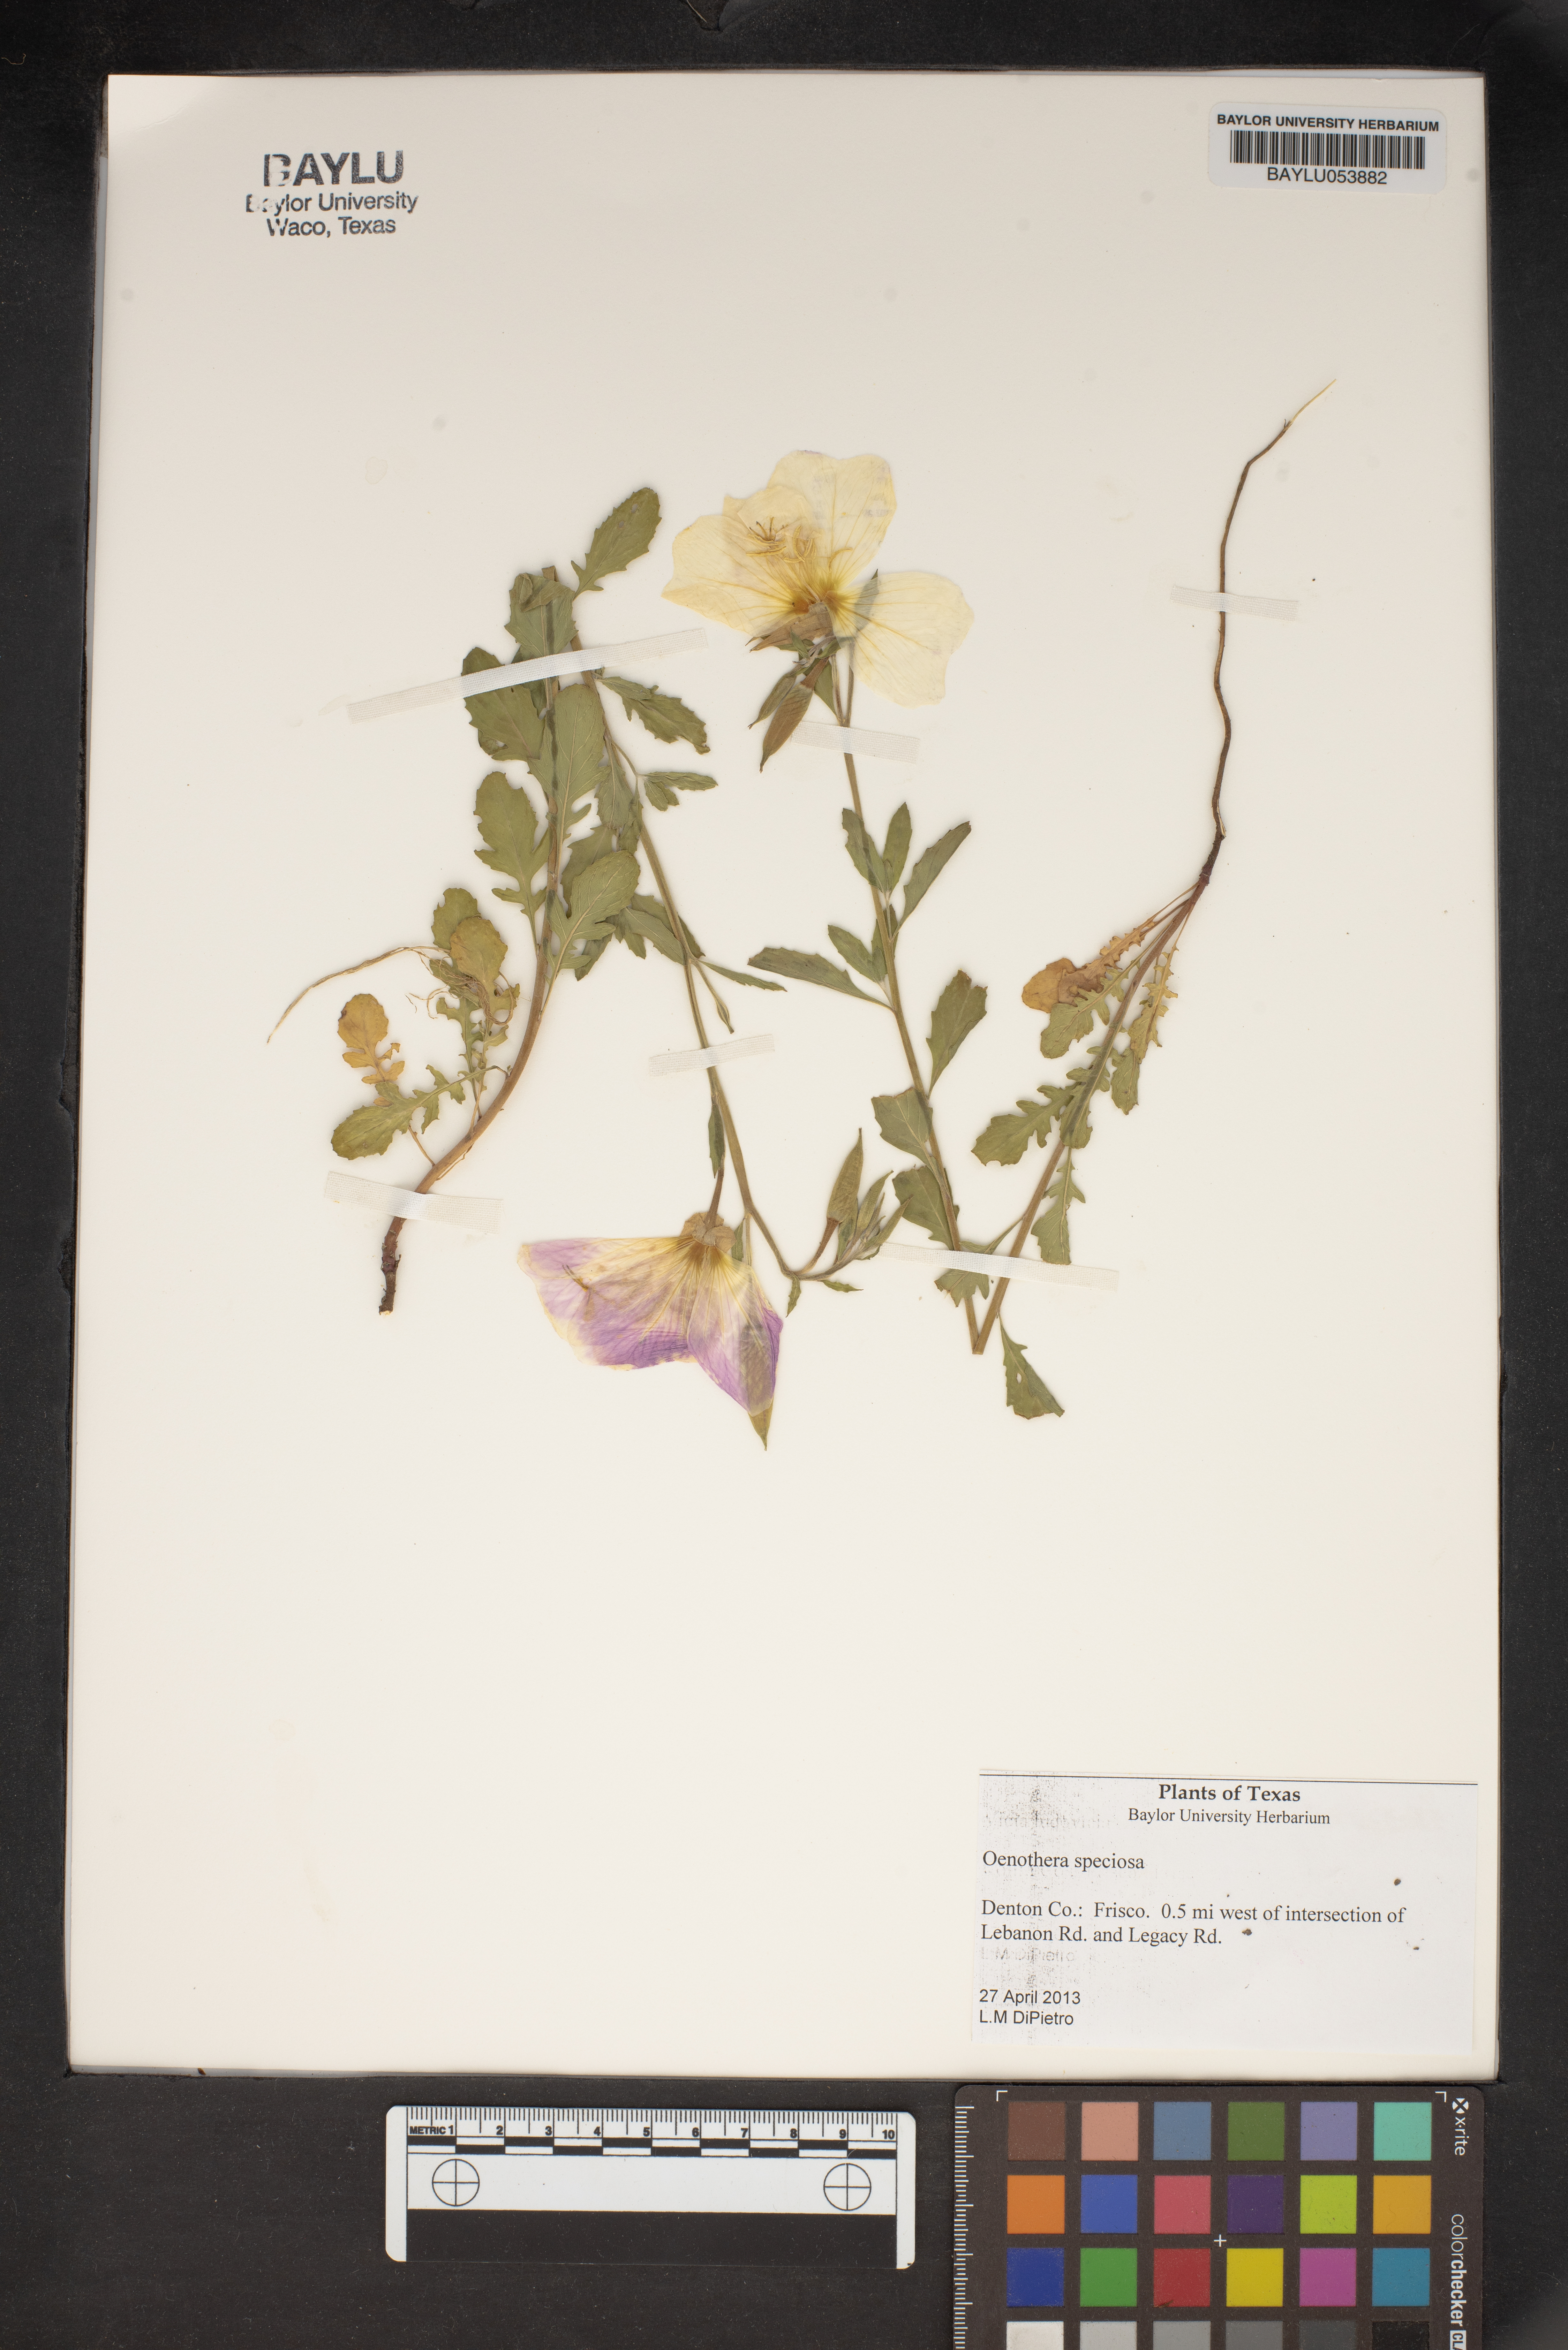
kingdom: Plantae
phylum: Tracheophyta
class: Magnoliopsida
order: Myrtales
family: Onagraceae
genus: Oenothera
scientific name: Oenothera speciosa
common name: White evening-primrose
